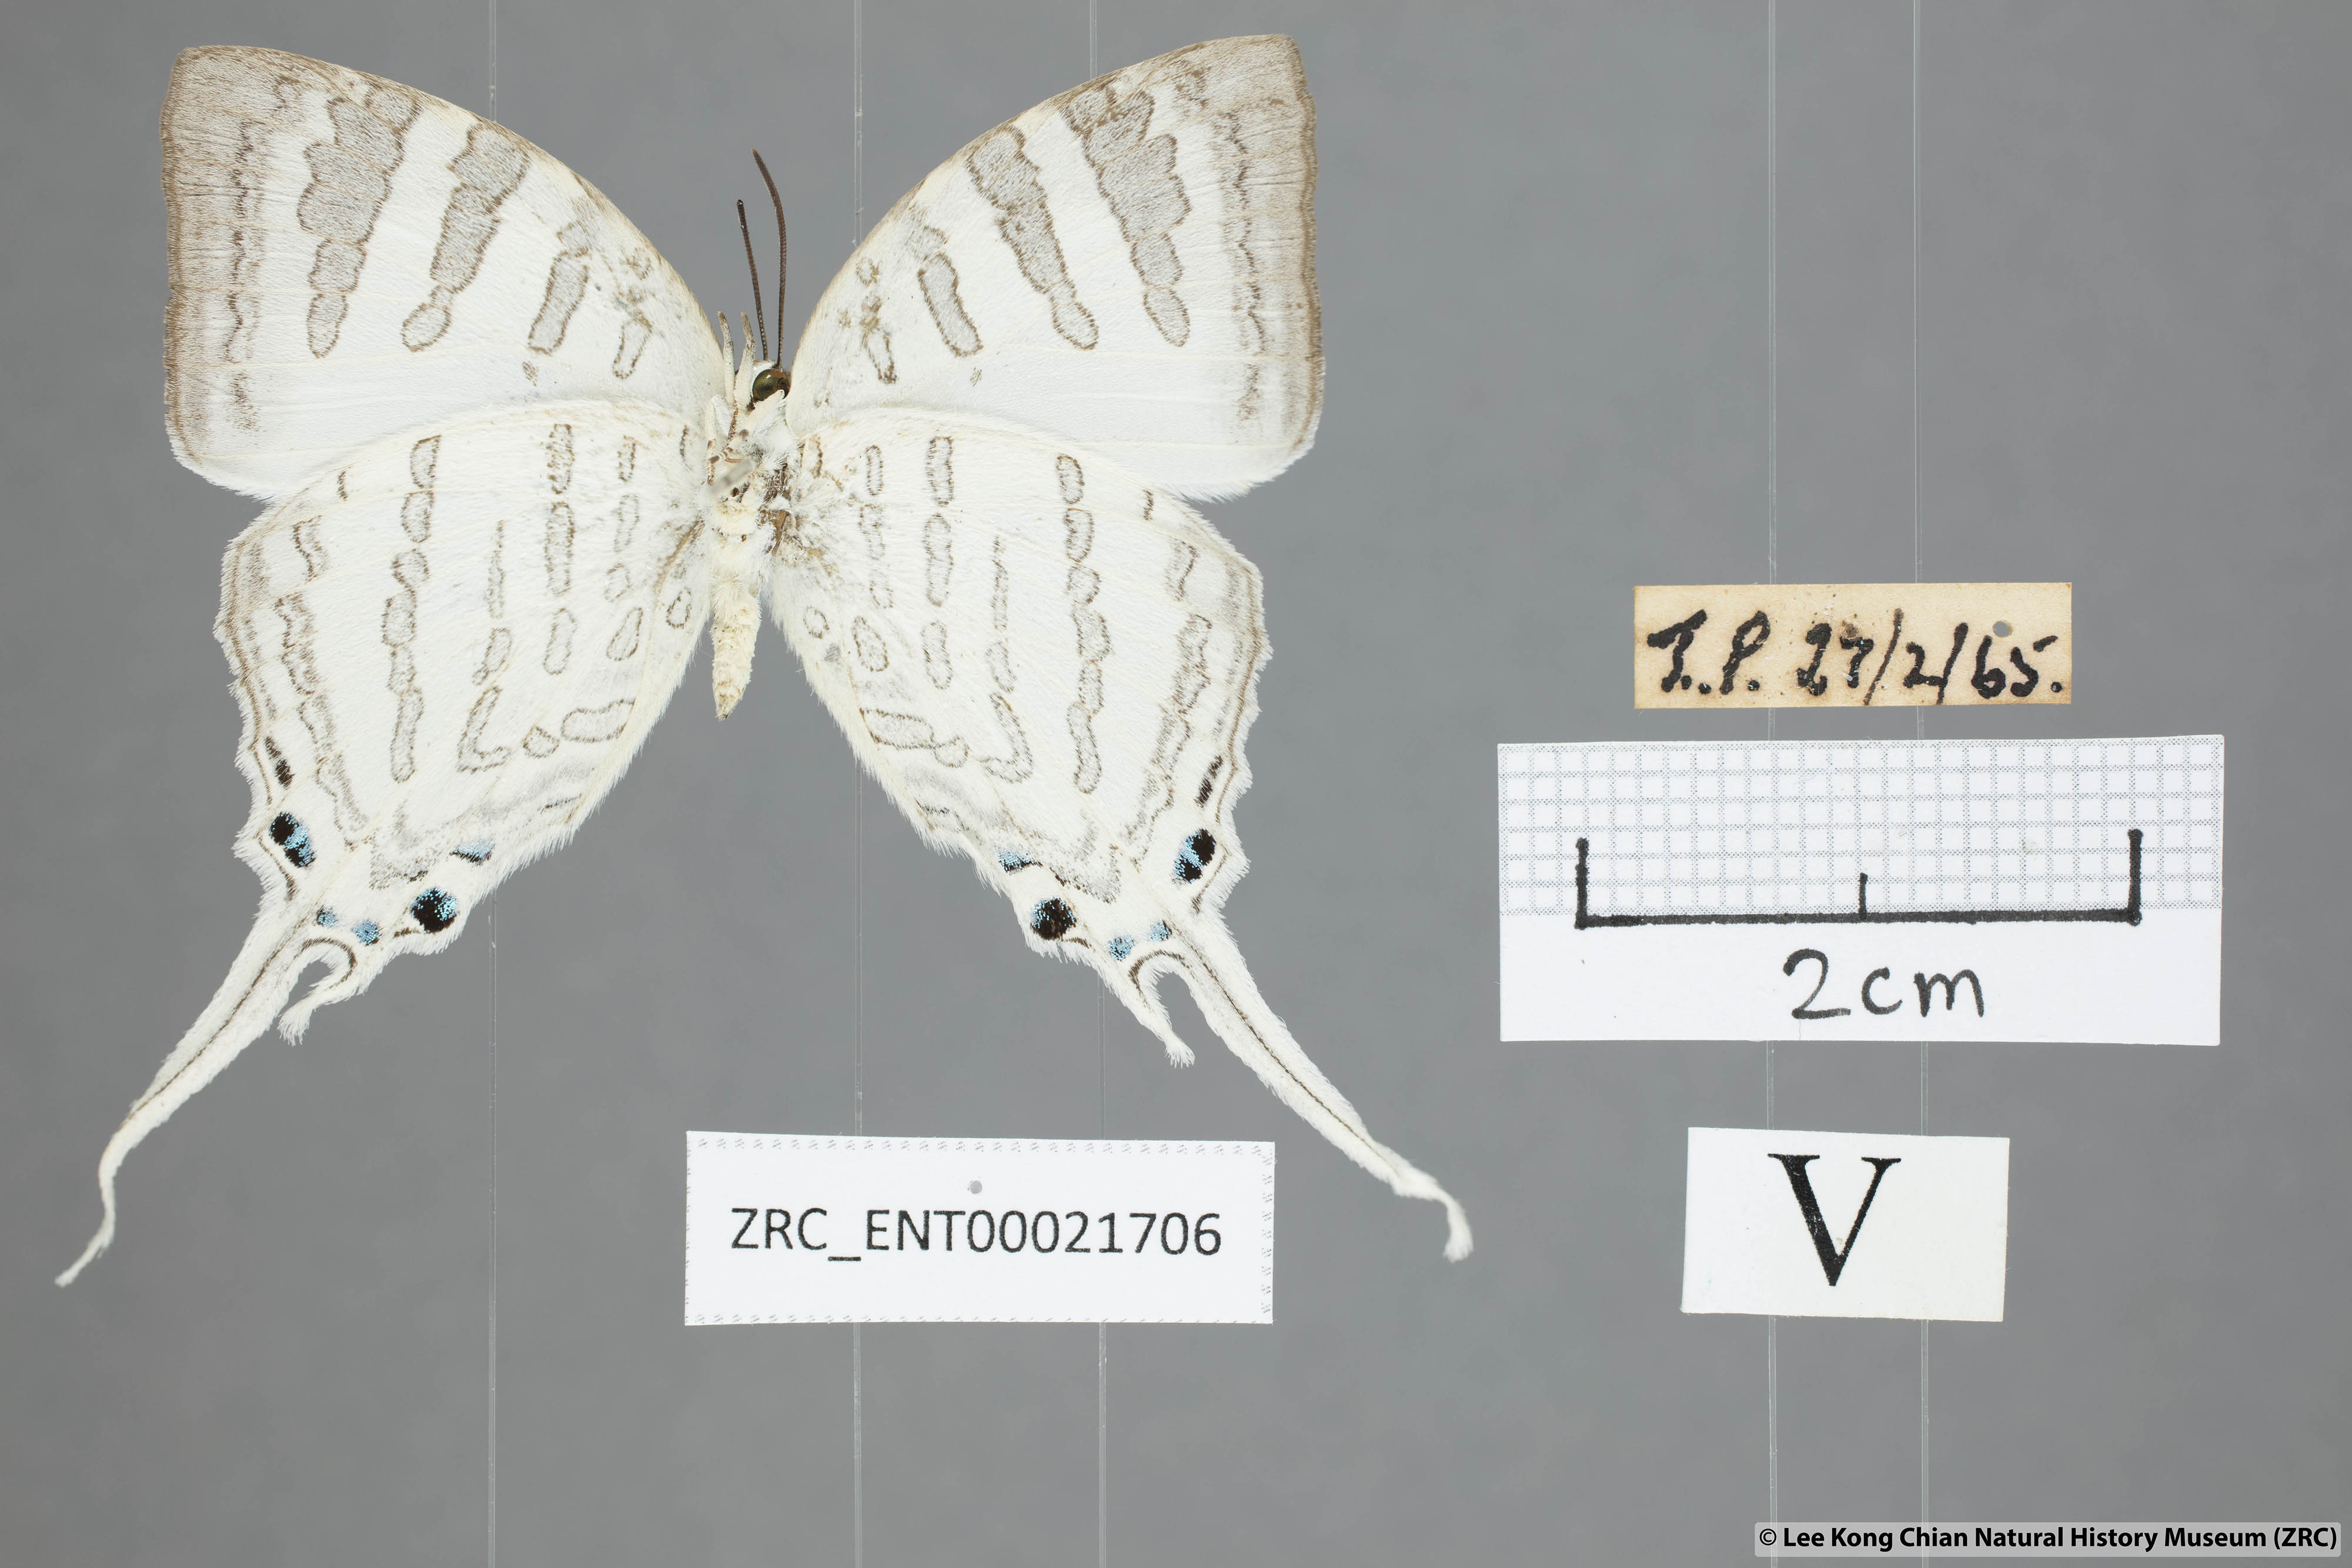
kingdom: Animalia
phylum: Arthropoda
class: Insecta
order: Lepidoptera
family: Lycaenidae
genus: Neomyrina
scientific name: Neomyrina nivea
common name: White imperial butterfly
